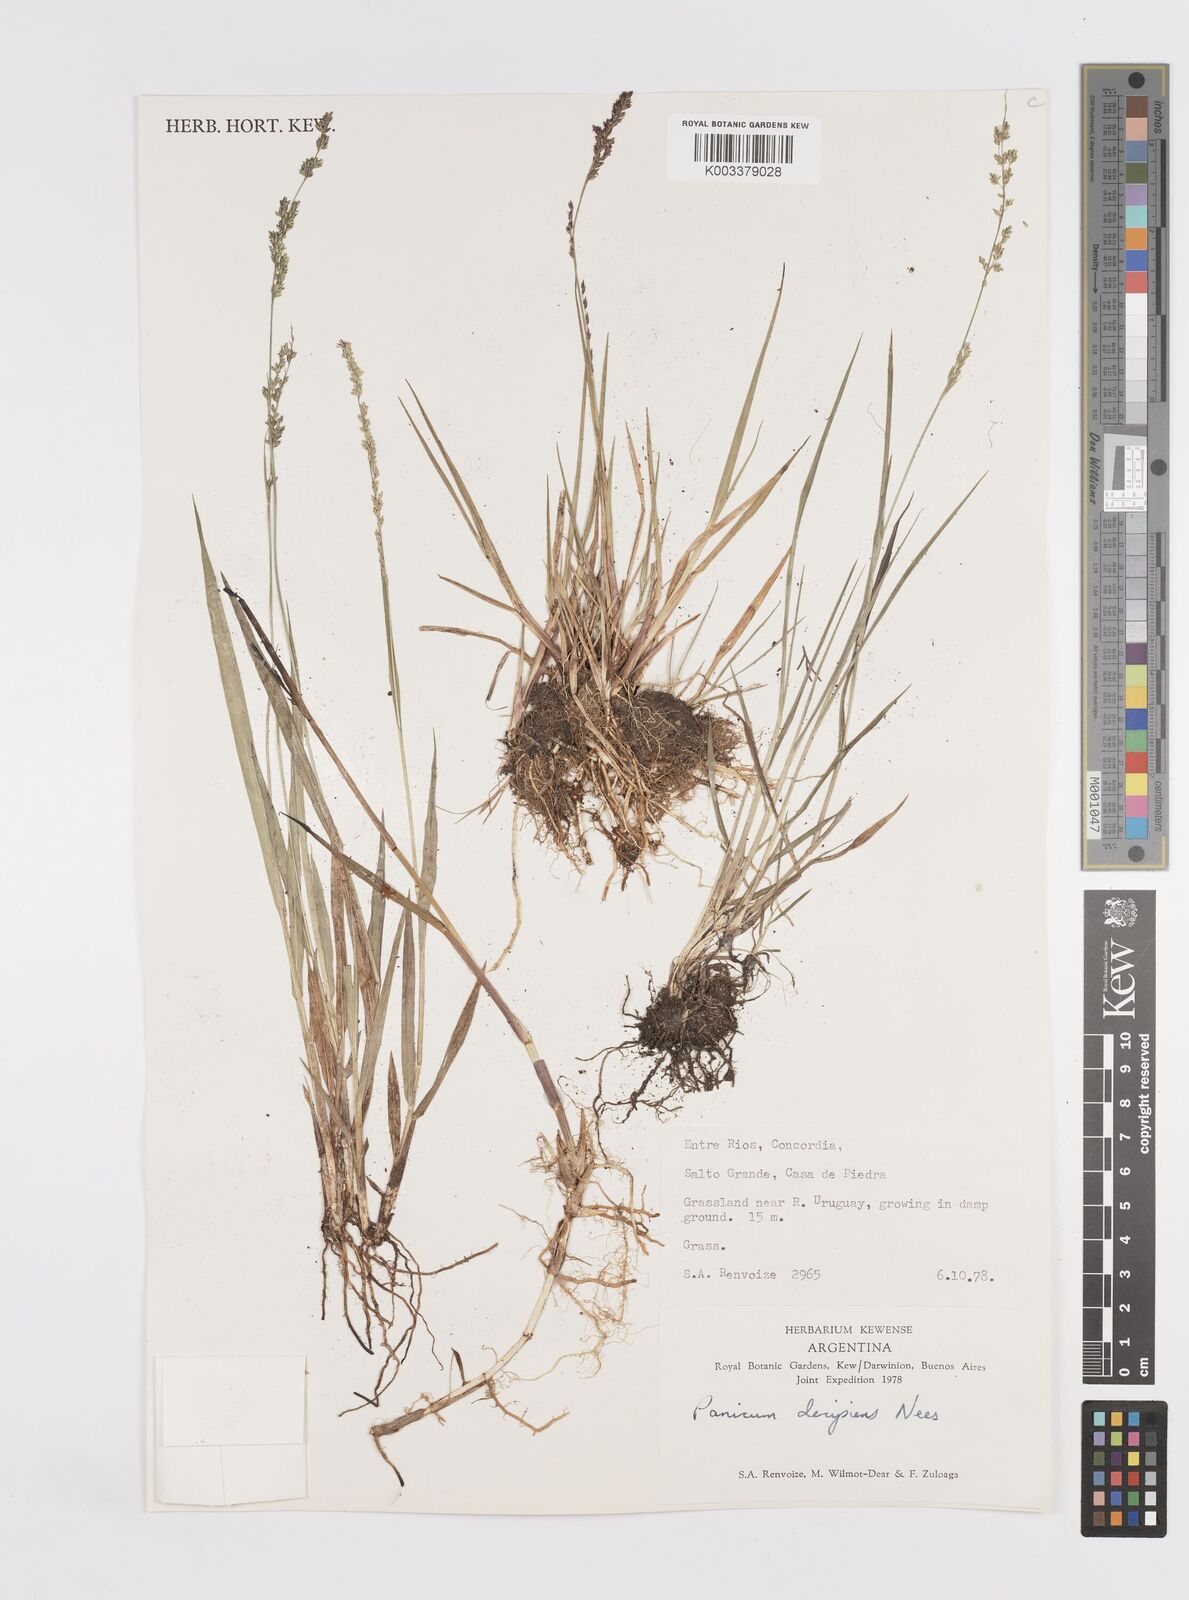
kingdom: Plantae
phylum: Tracheophyta
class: Liliopsida
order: Poales
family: Poaceae
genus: Steinchisma
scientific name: Steinchisma decipiens
